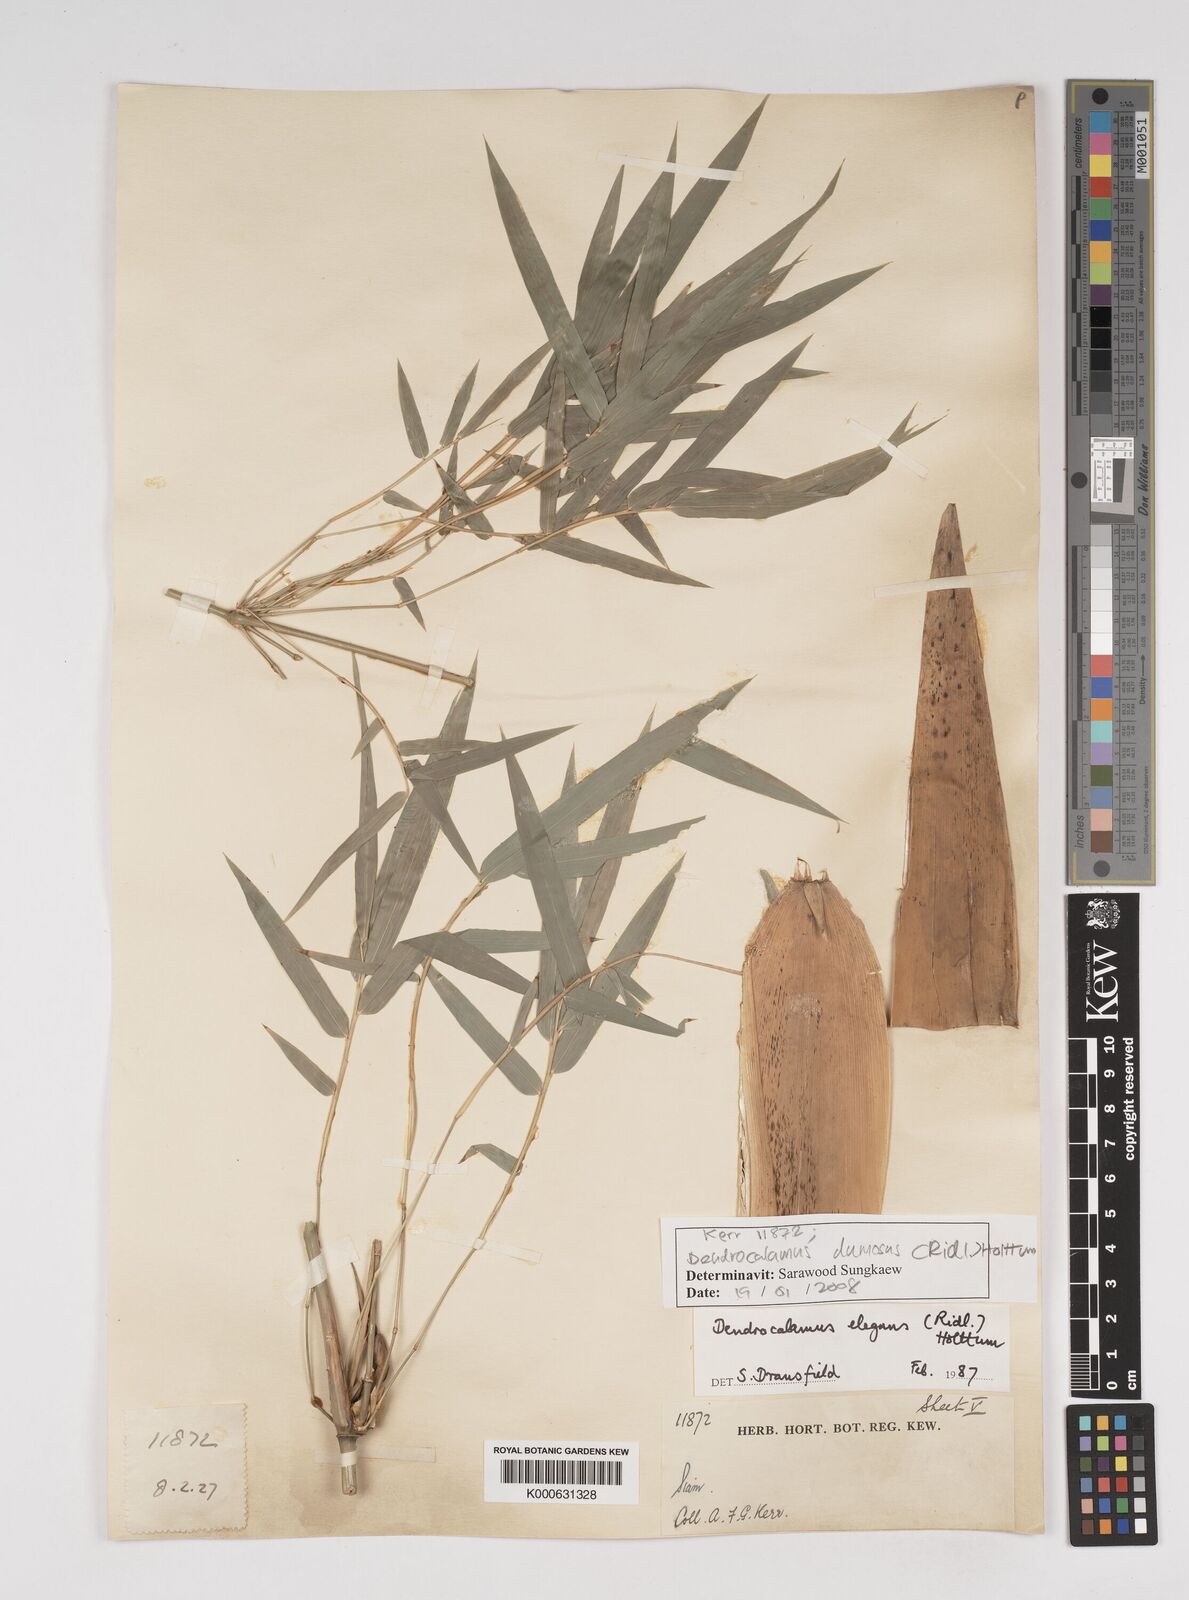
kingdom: Plantae
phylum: Tracheophyta
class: Liliopsida
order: Poales
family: Poaceae
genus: Dendrocalamus
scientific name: Dendrocalamus dumosus
